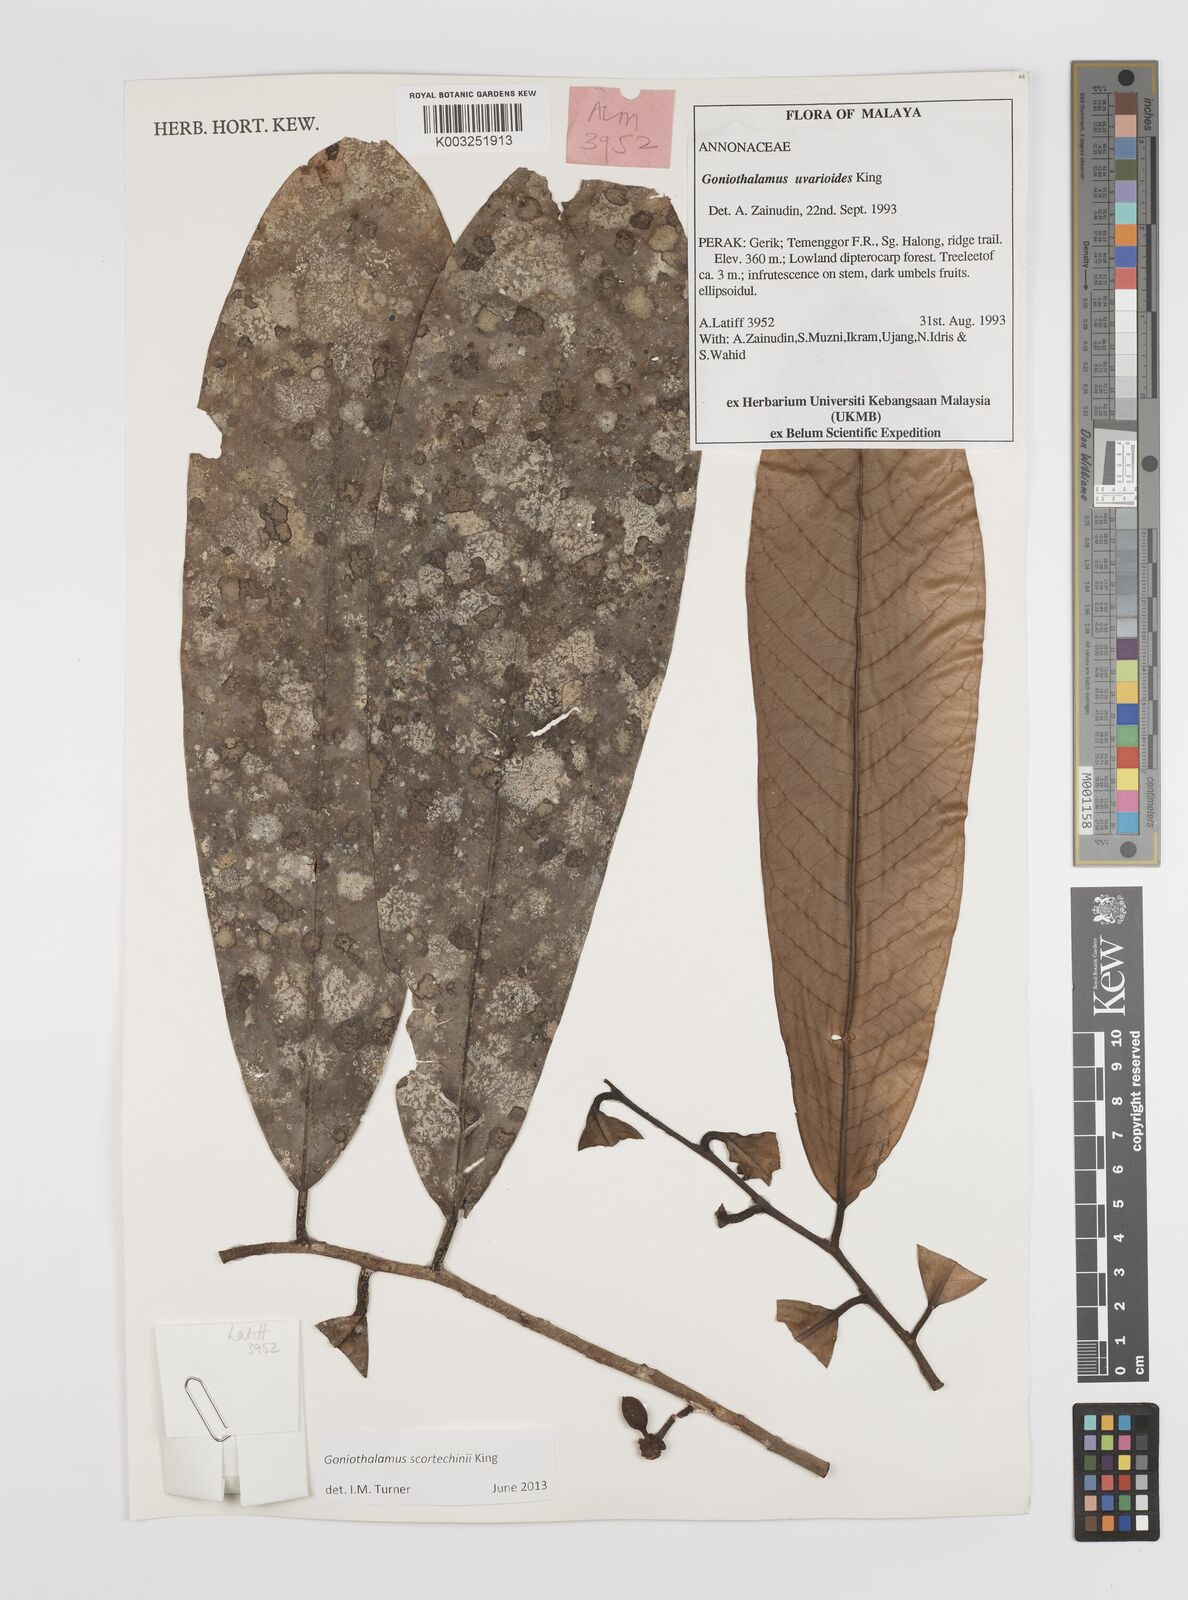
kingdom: Plantae
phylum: Tracheophyta
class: Magnoliopsida
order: Magnoliales
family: Annonaceae
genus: Goniothalamus
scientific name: Goniothalamus scortechinii
